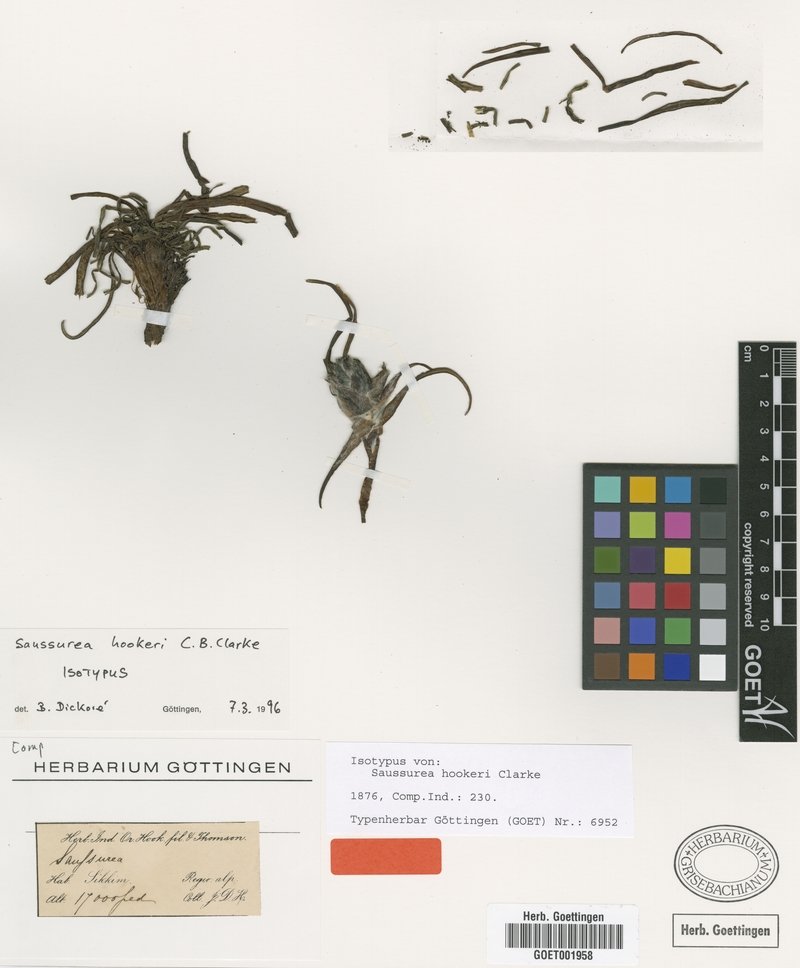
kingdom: Plantae
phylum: Tracheophyta
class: Magnoliopsida
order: Asterales
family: Asteraceae
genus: Saussurea
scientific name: Saussurea hookeri
